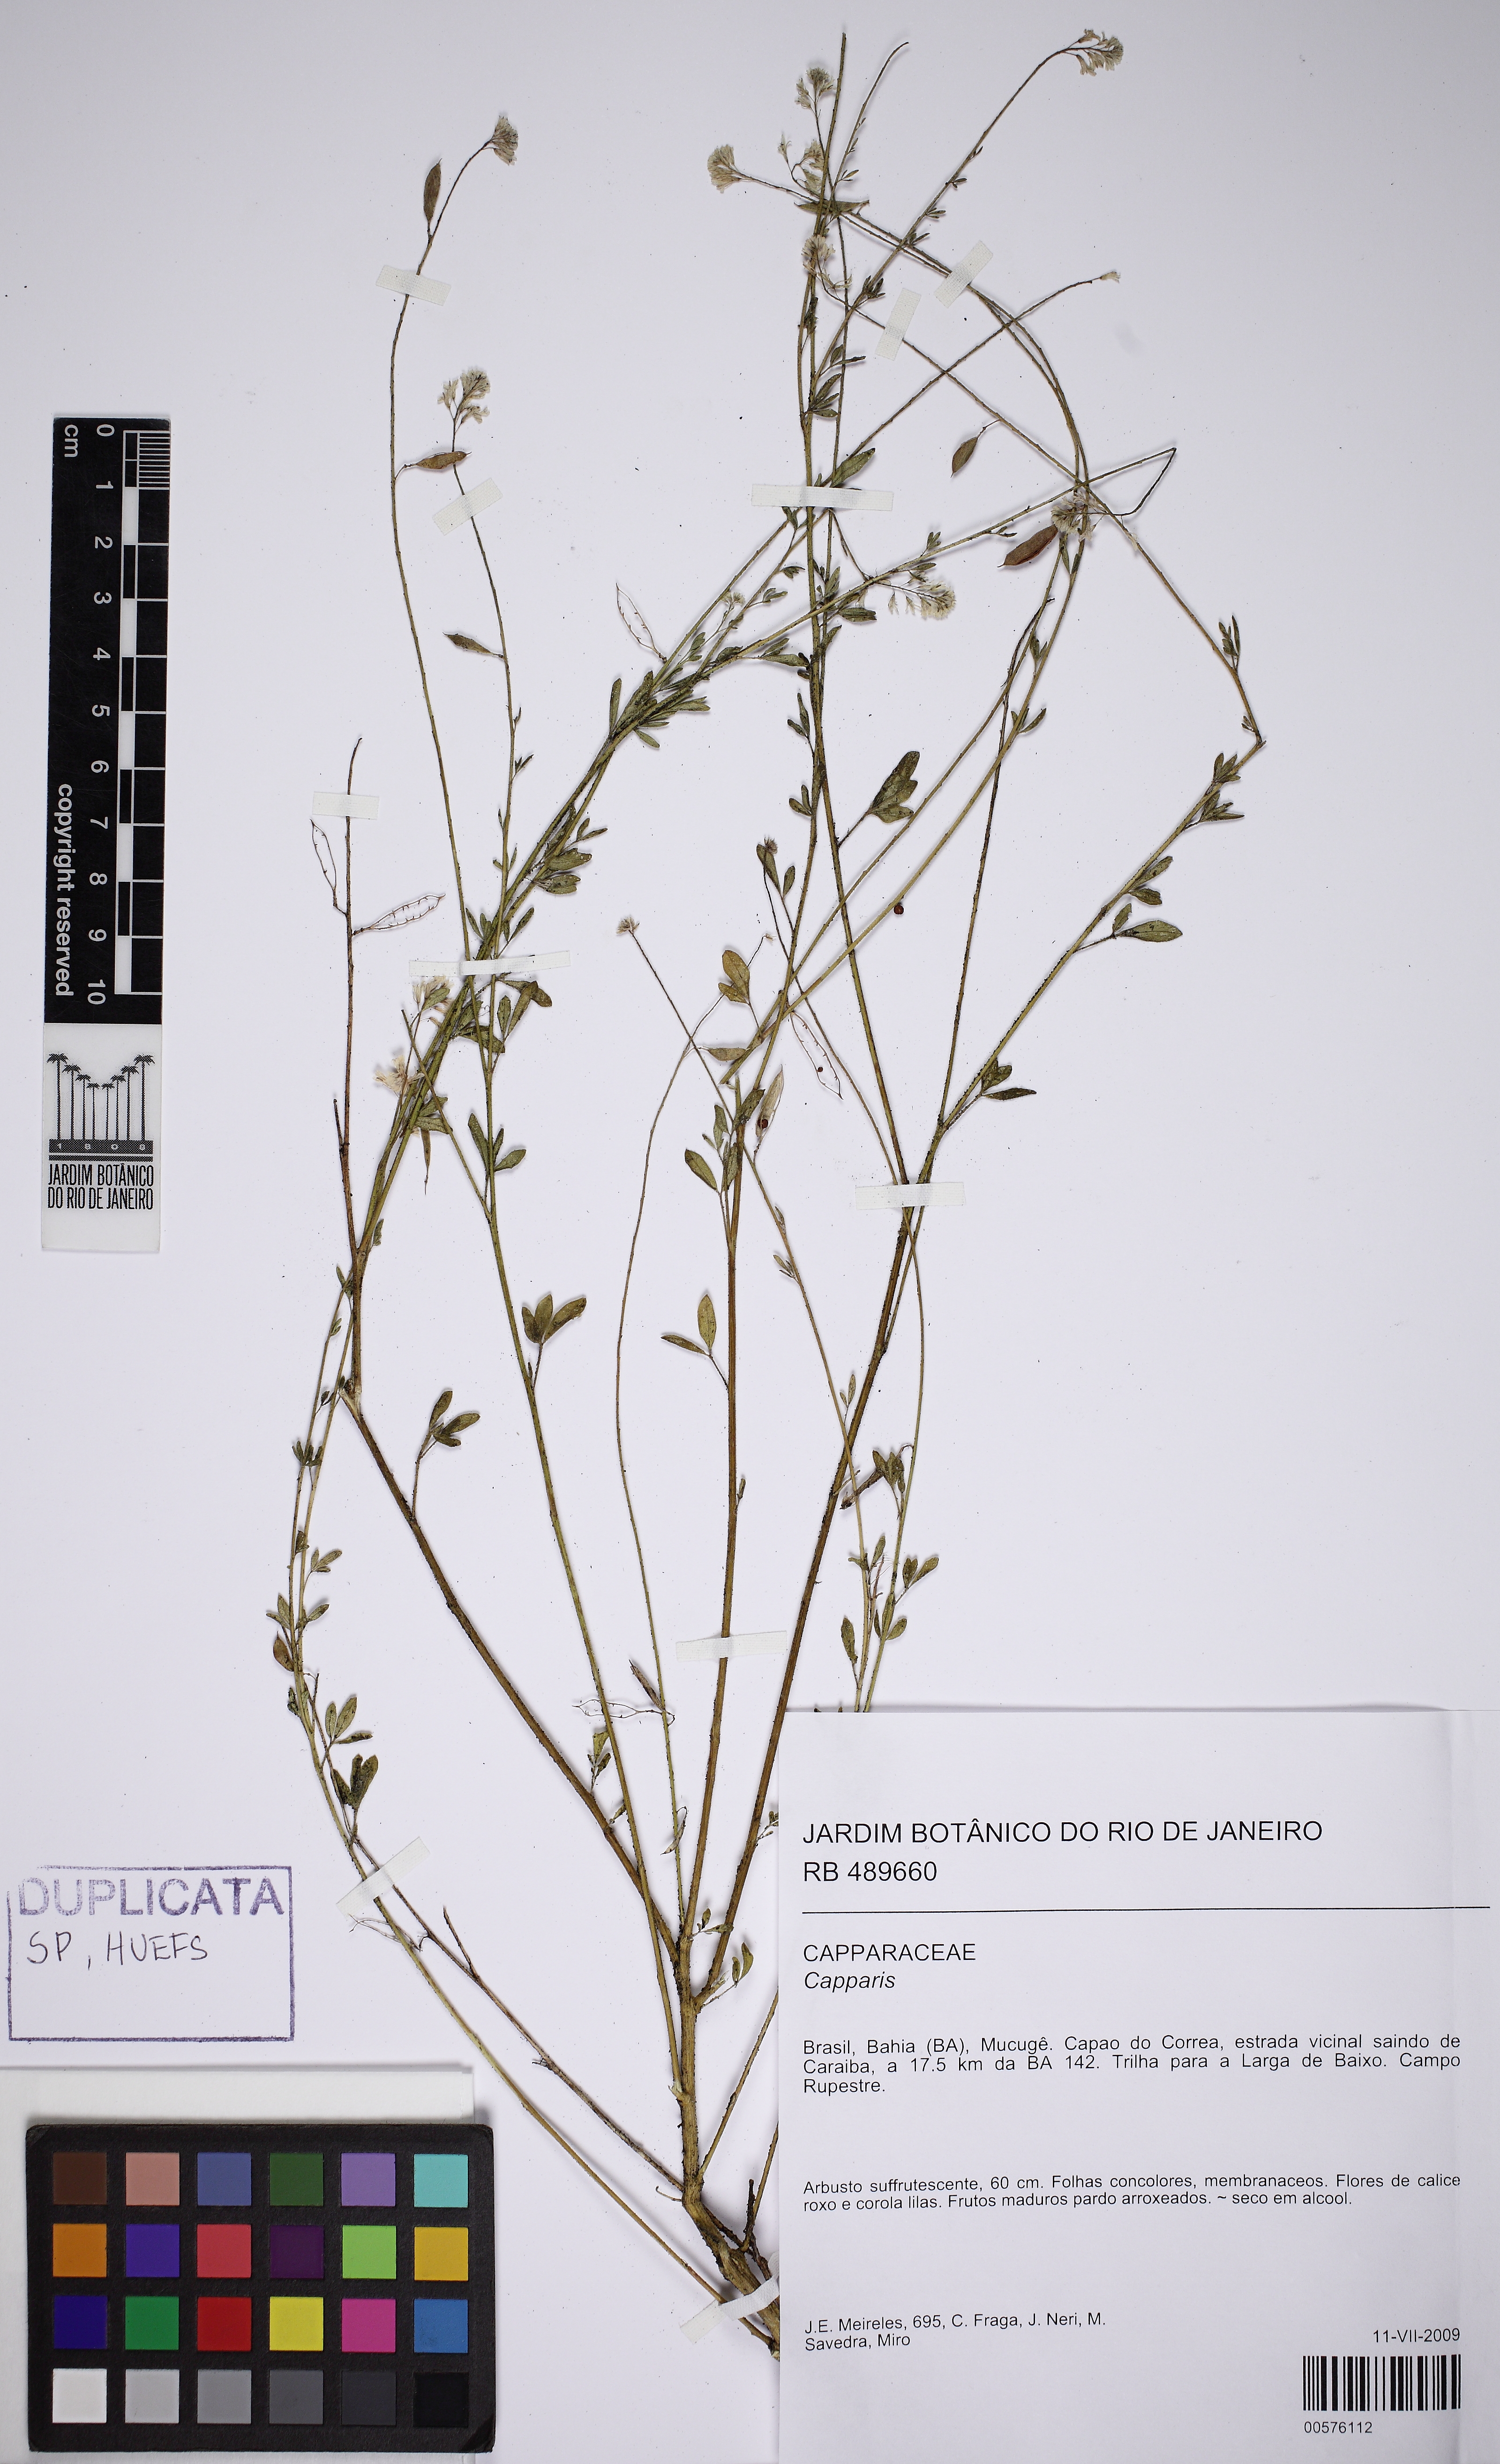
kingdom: Plantae
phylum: Tracheophyta
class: Magnoliopsida
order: Brassicales
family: Cleomaceae
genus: Dactylaena
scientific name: Dactylaena microphylla
